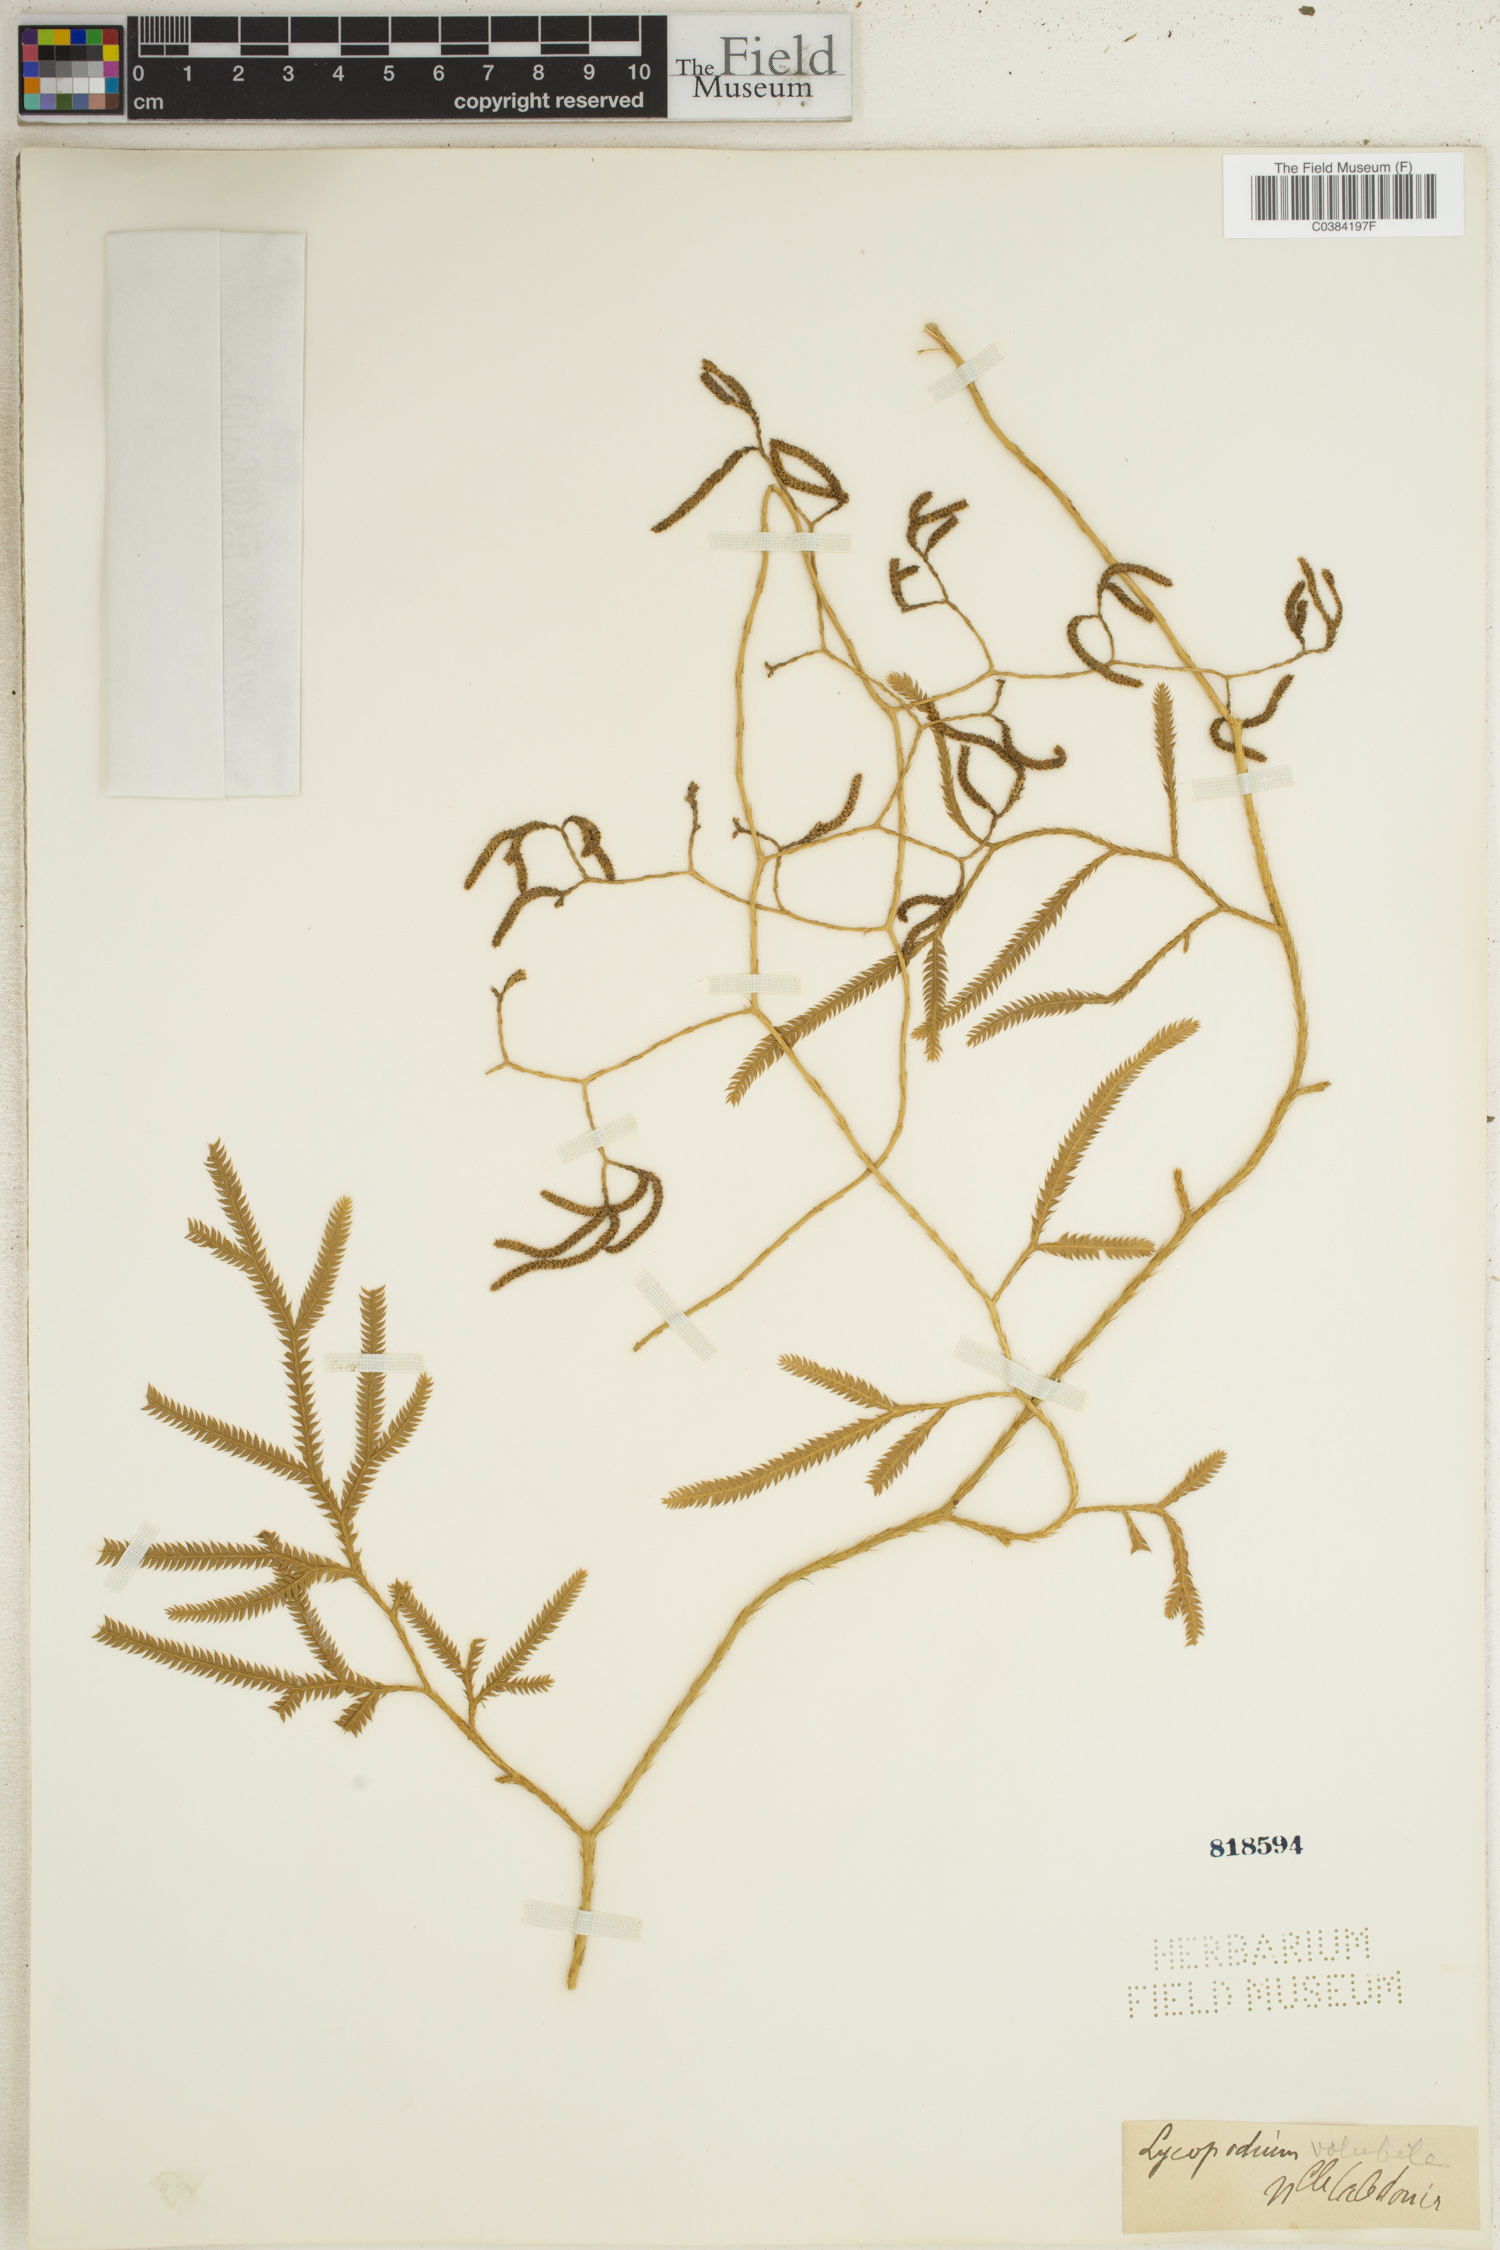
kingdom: Plantae
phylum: Tracheophyta
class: Lycopodiopsida
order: Lycopodiales
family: Lycopodiaceae
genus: Pseudodiphasium
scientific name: Pseudodiphasium volubile
